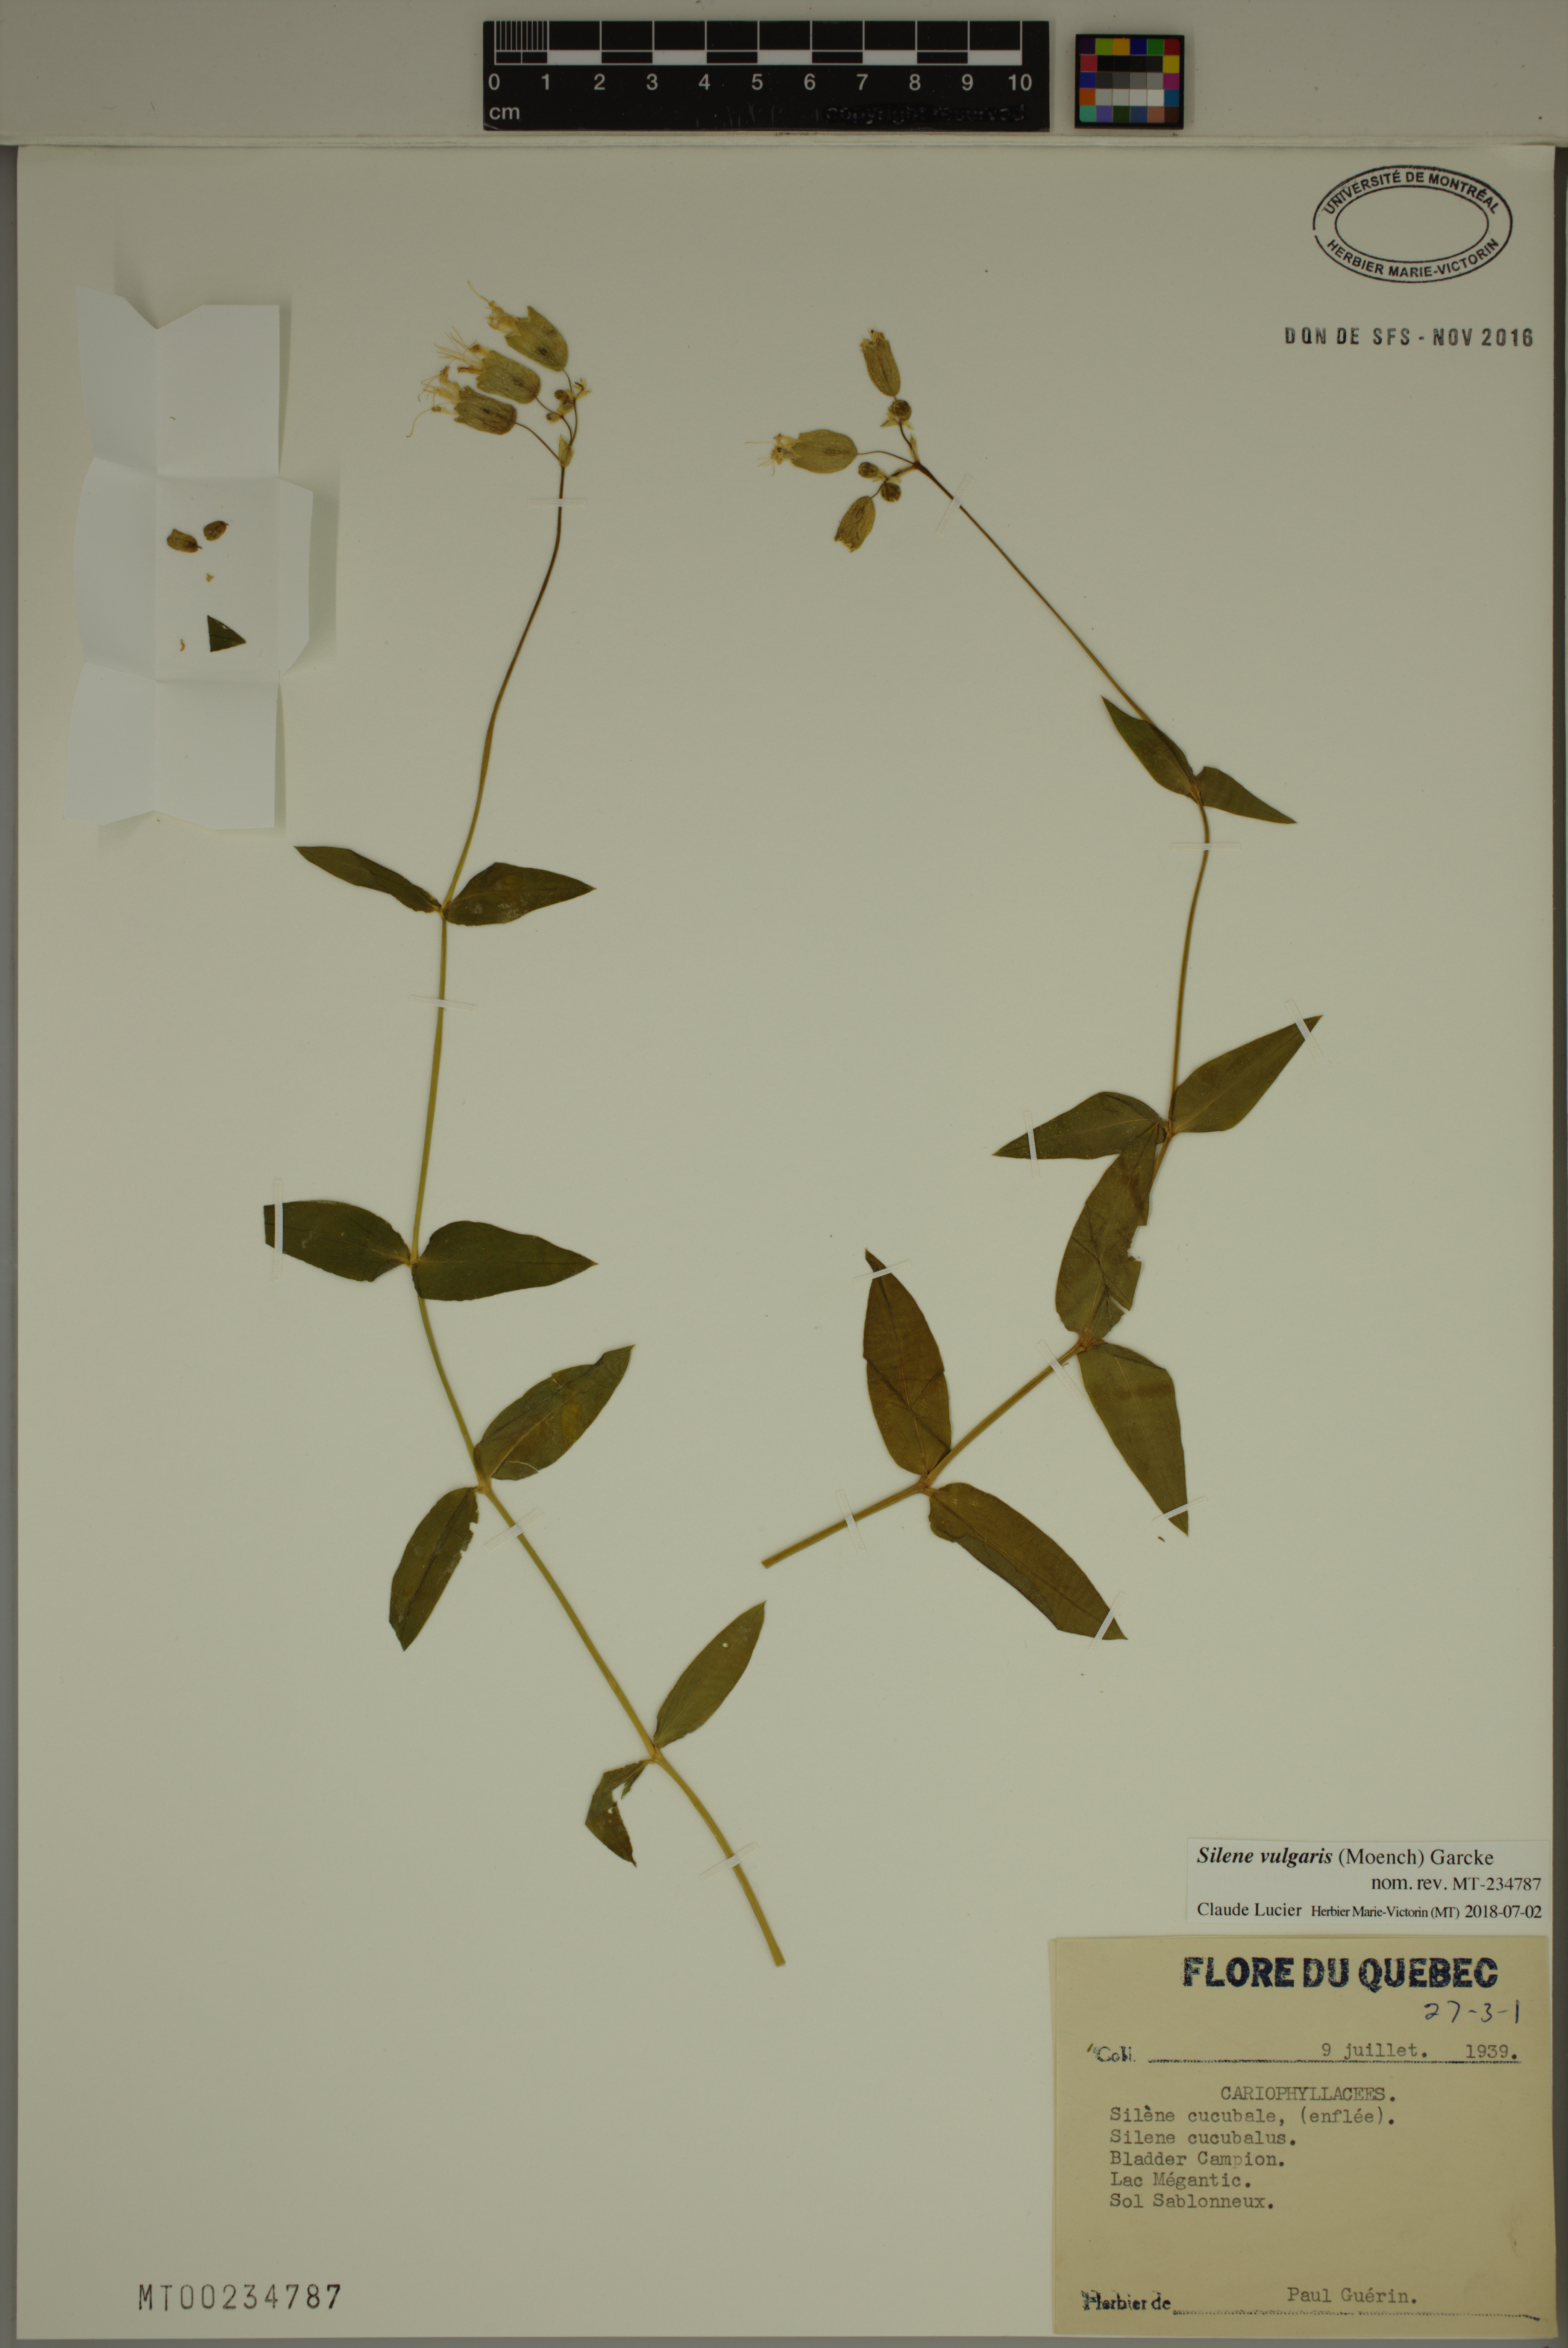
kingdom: Plantae
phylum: Tracheophyta
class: Magnoliopsida
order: Caryophyllales
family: Caryophyllaceae
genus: Silene
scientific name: Silene vulgaris
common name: Bladder campion
